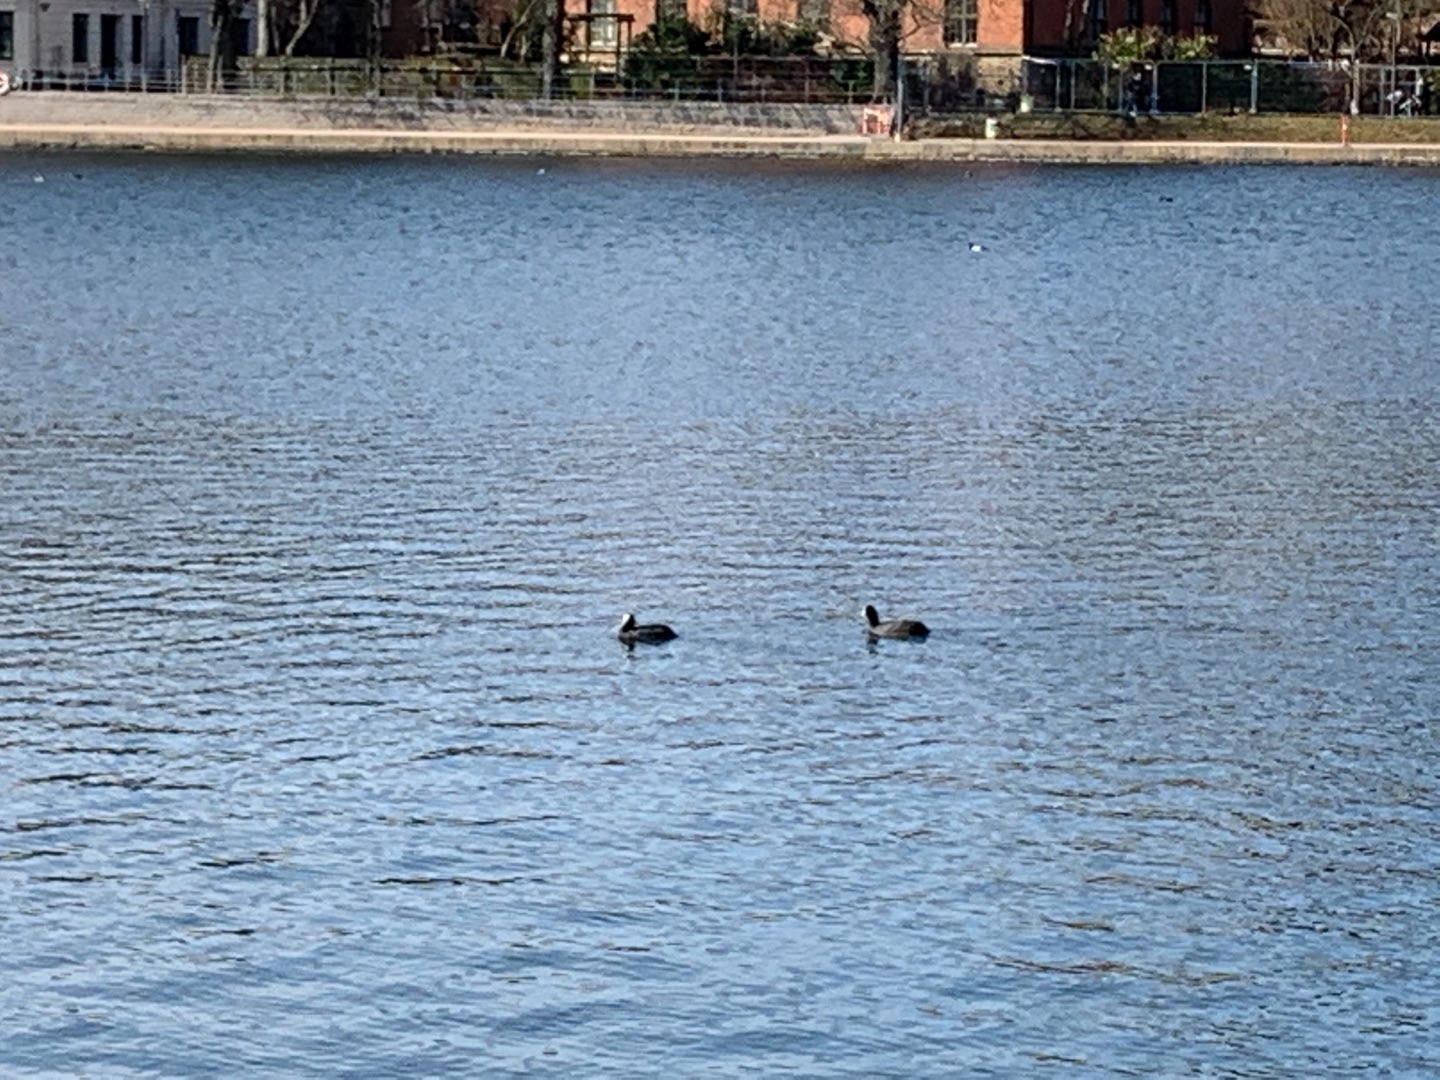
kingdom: Animalia
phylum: Chordata
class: Aves
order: Gruiformes
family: Rallidae
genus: Fulica
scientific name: Fulica atra
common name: Blishøne
